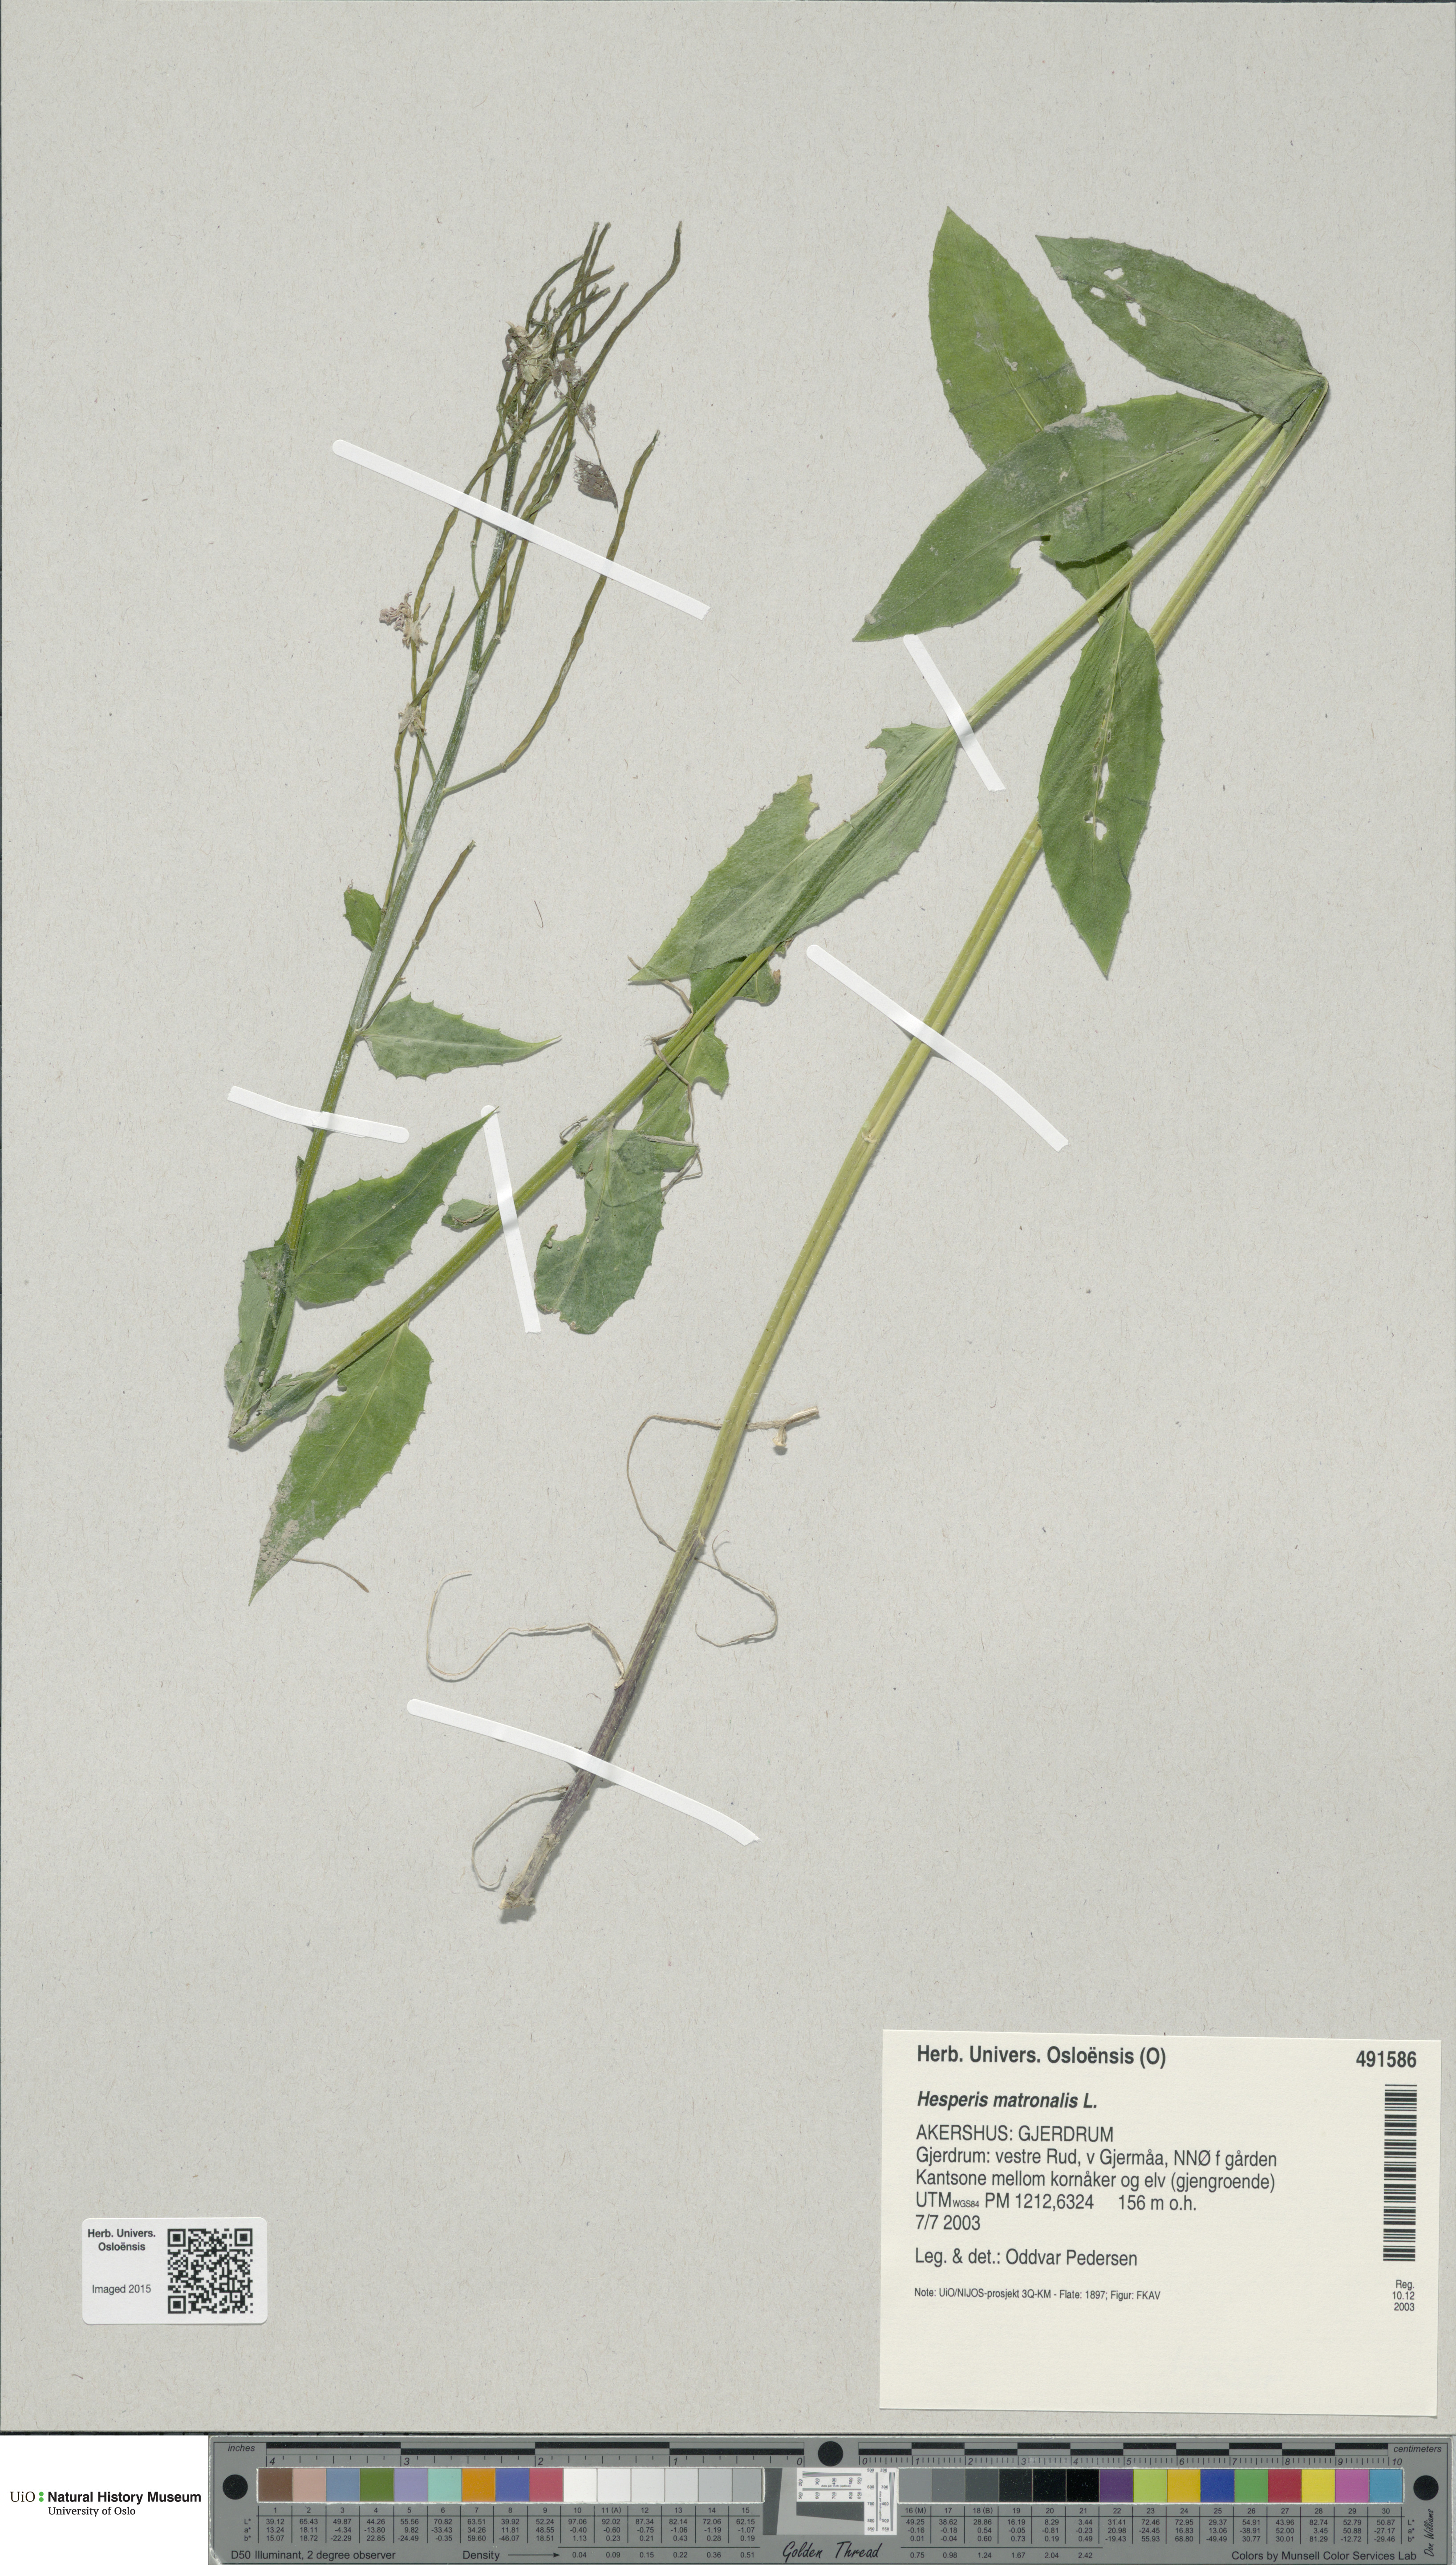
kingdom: Plantae
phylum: Tracheophyta
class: Magnoliopsida
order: Brassicales
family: Brassicaceae
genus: Hesperis
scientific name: Hesperis matronalis
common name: Dame's-violet
